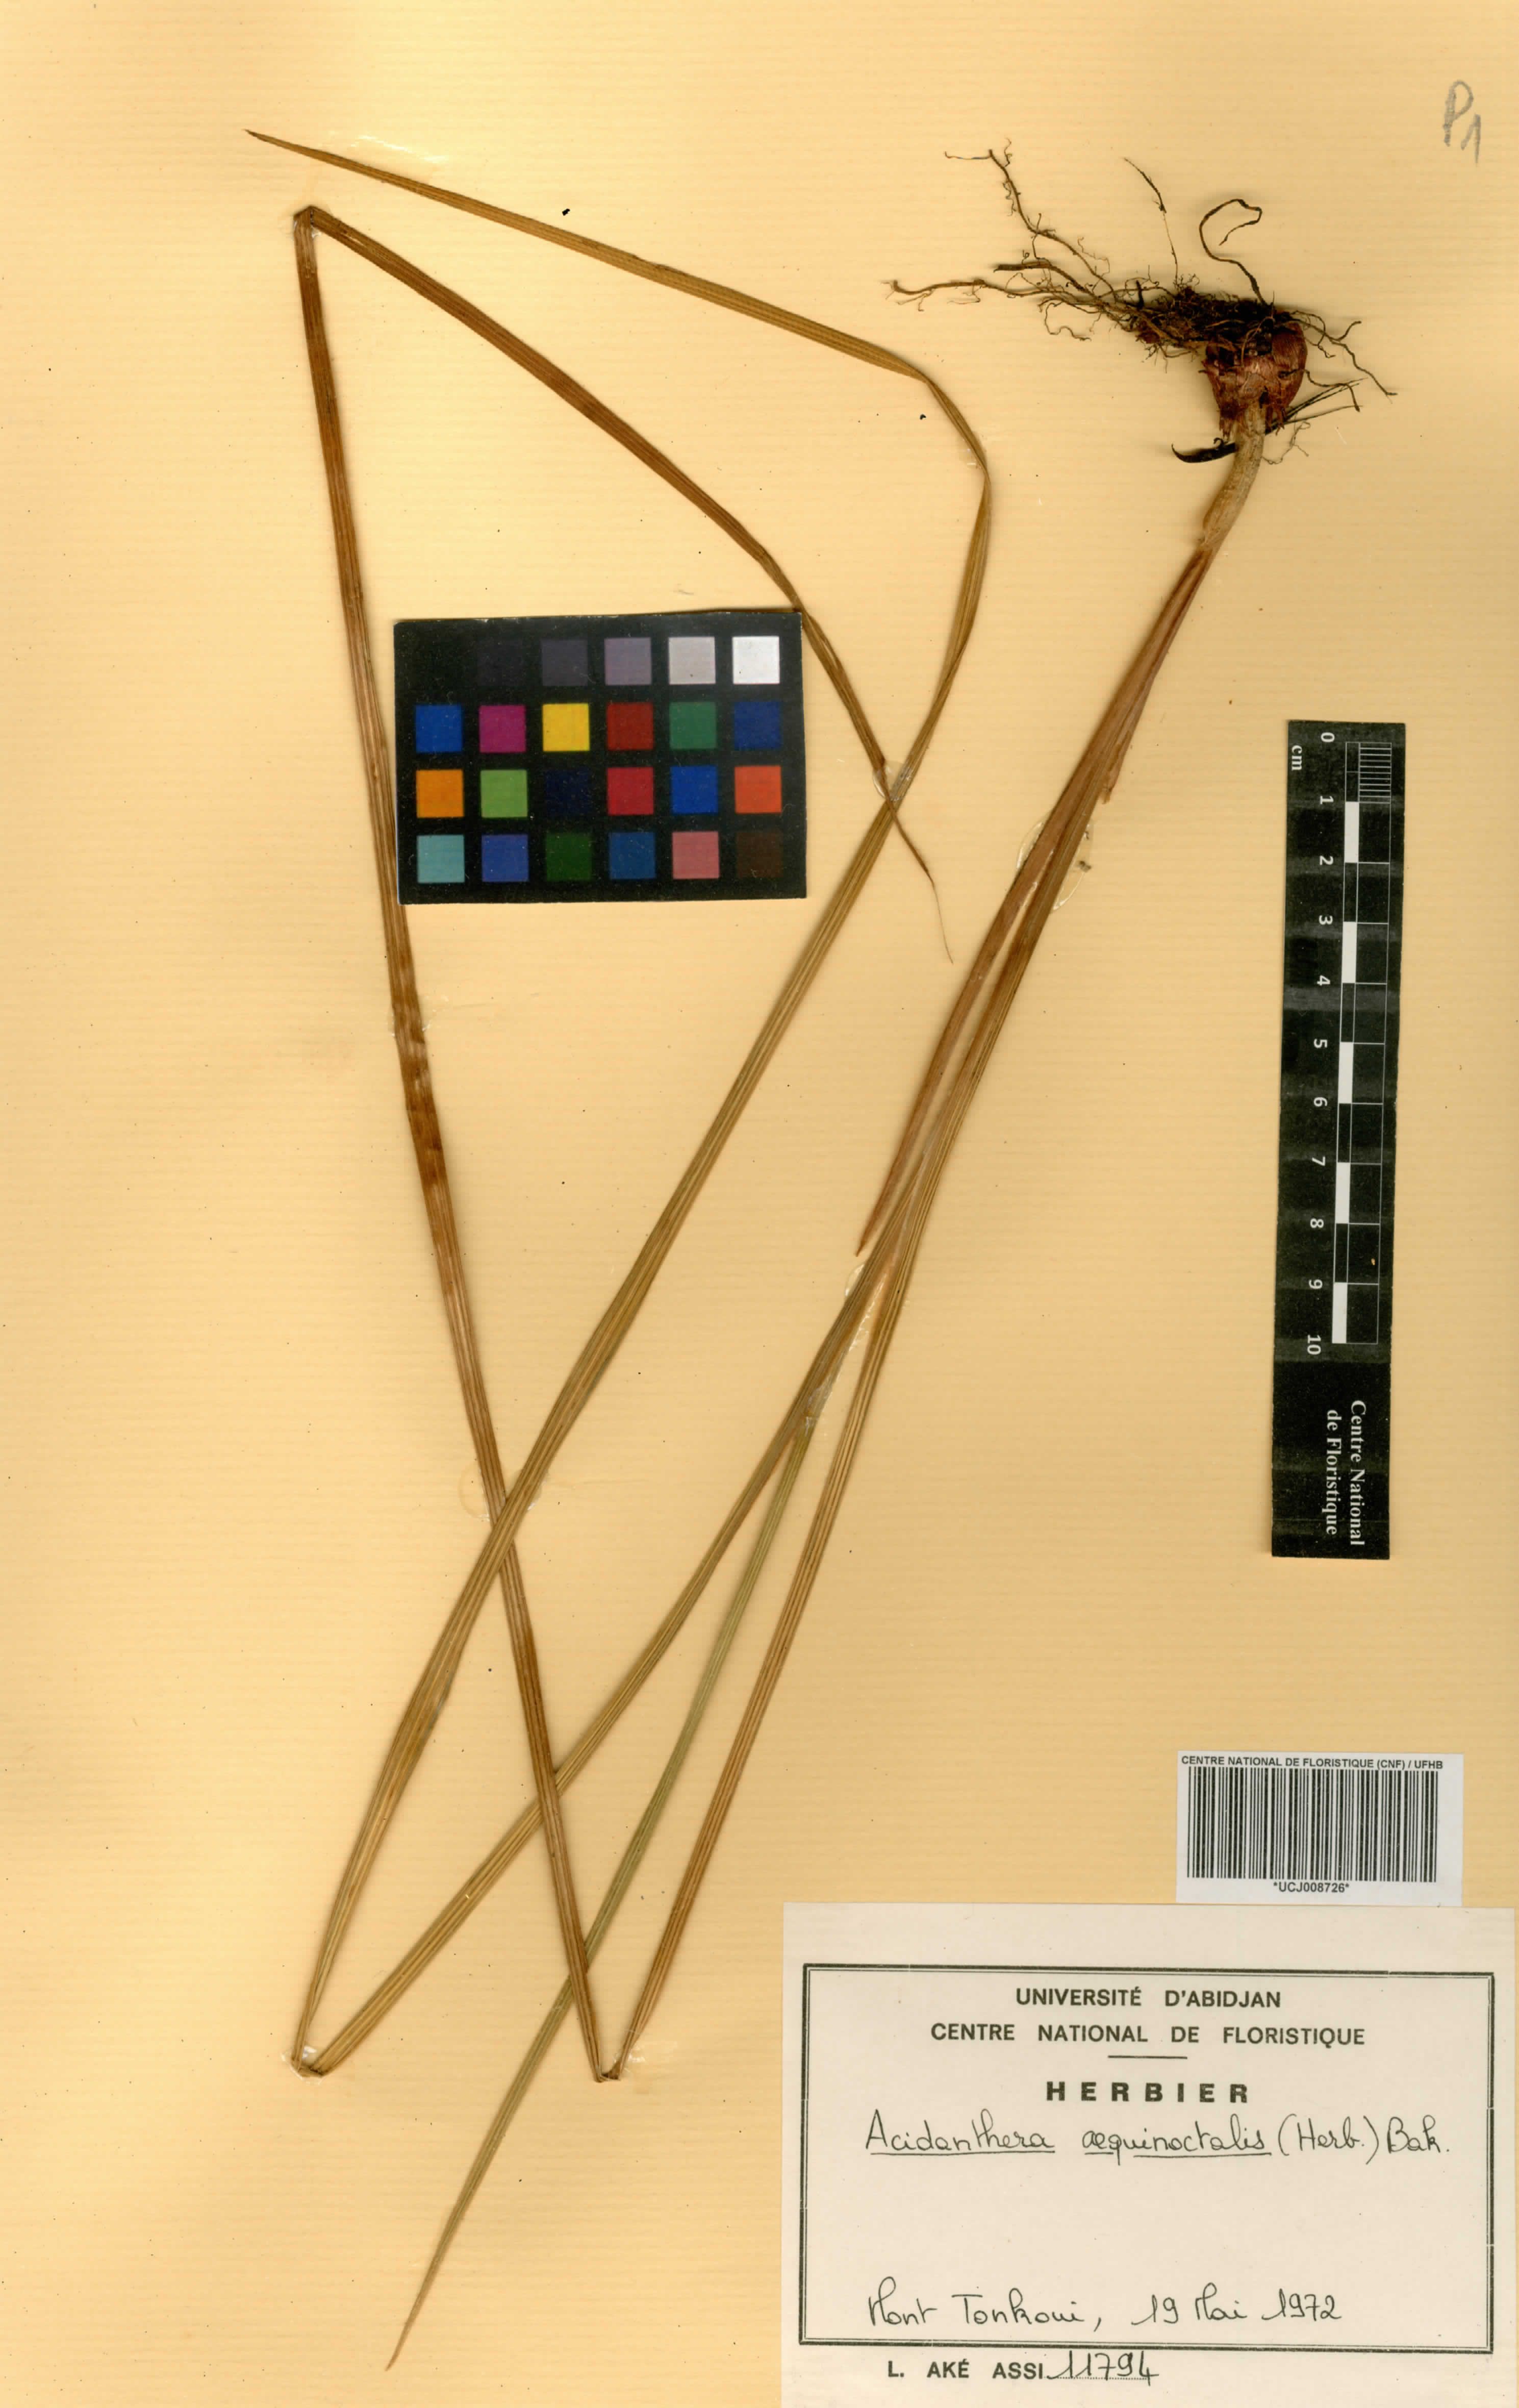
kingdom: Plantae
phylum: Tracheophyta
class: Liliopsida
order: Asparagales
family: Iridaceae
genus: Gladiolus
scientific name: Gladiolus aequinoctialis
